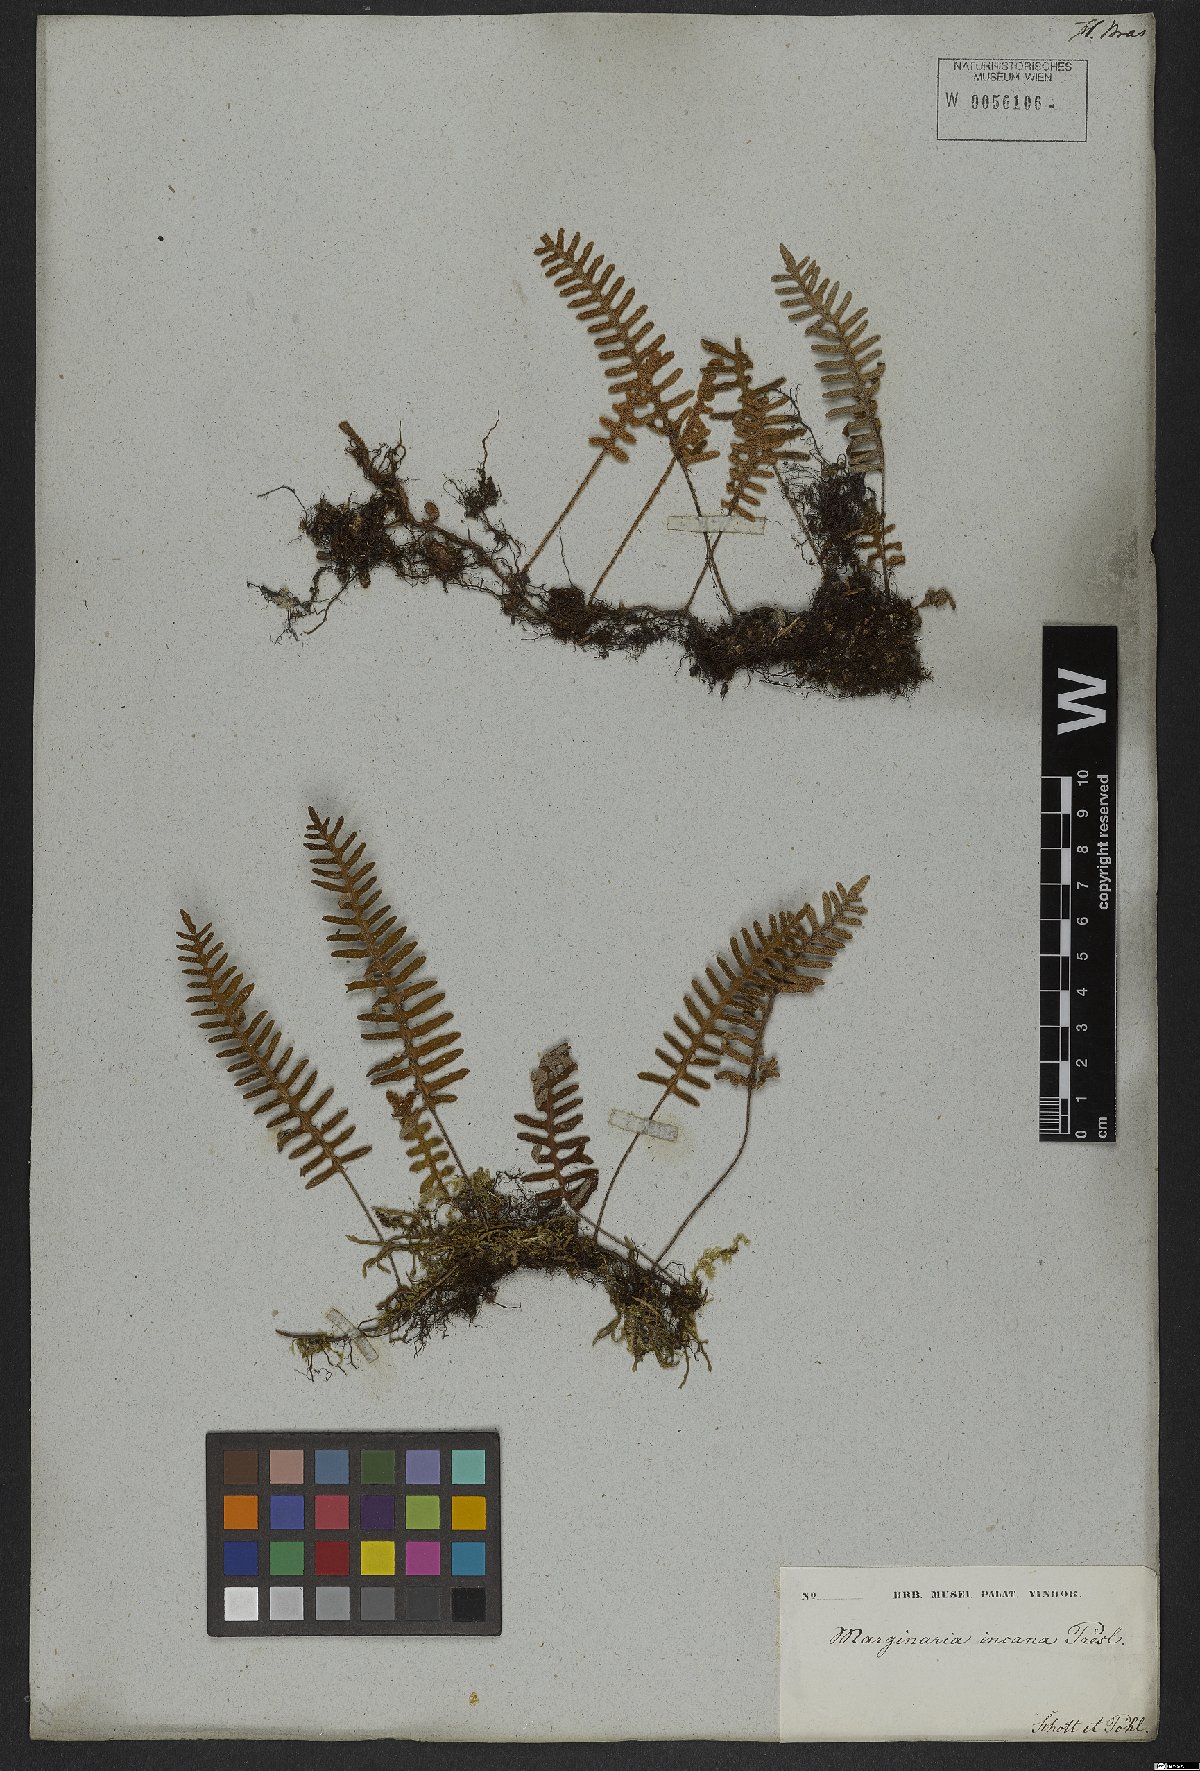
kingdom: Plantae
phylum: Tracheophyta
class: Polypodiopsida
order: Polypodiales
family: Polypodiaceae
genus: Pleopeltis
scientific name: Pleopeltis polypodioides
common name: Resurrection fern
